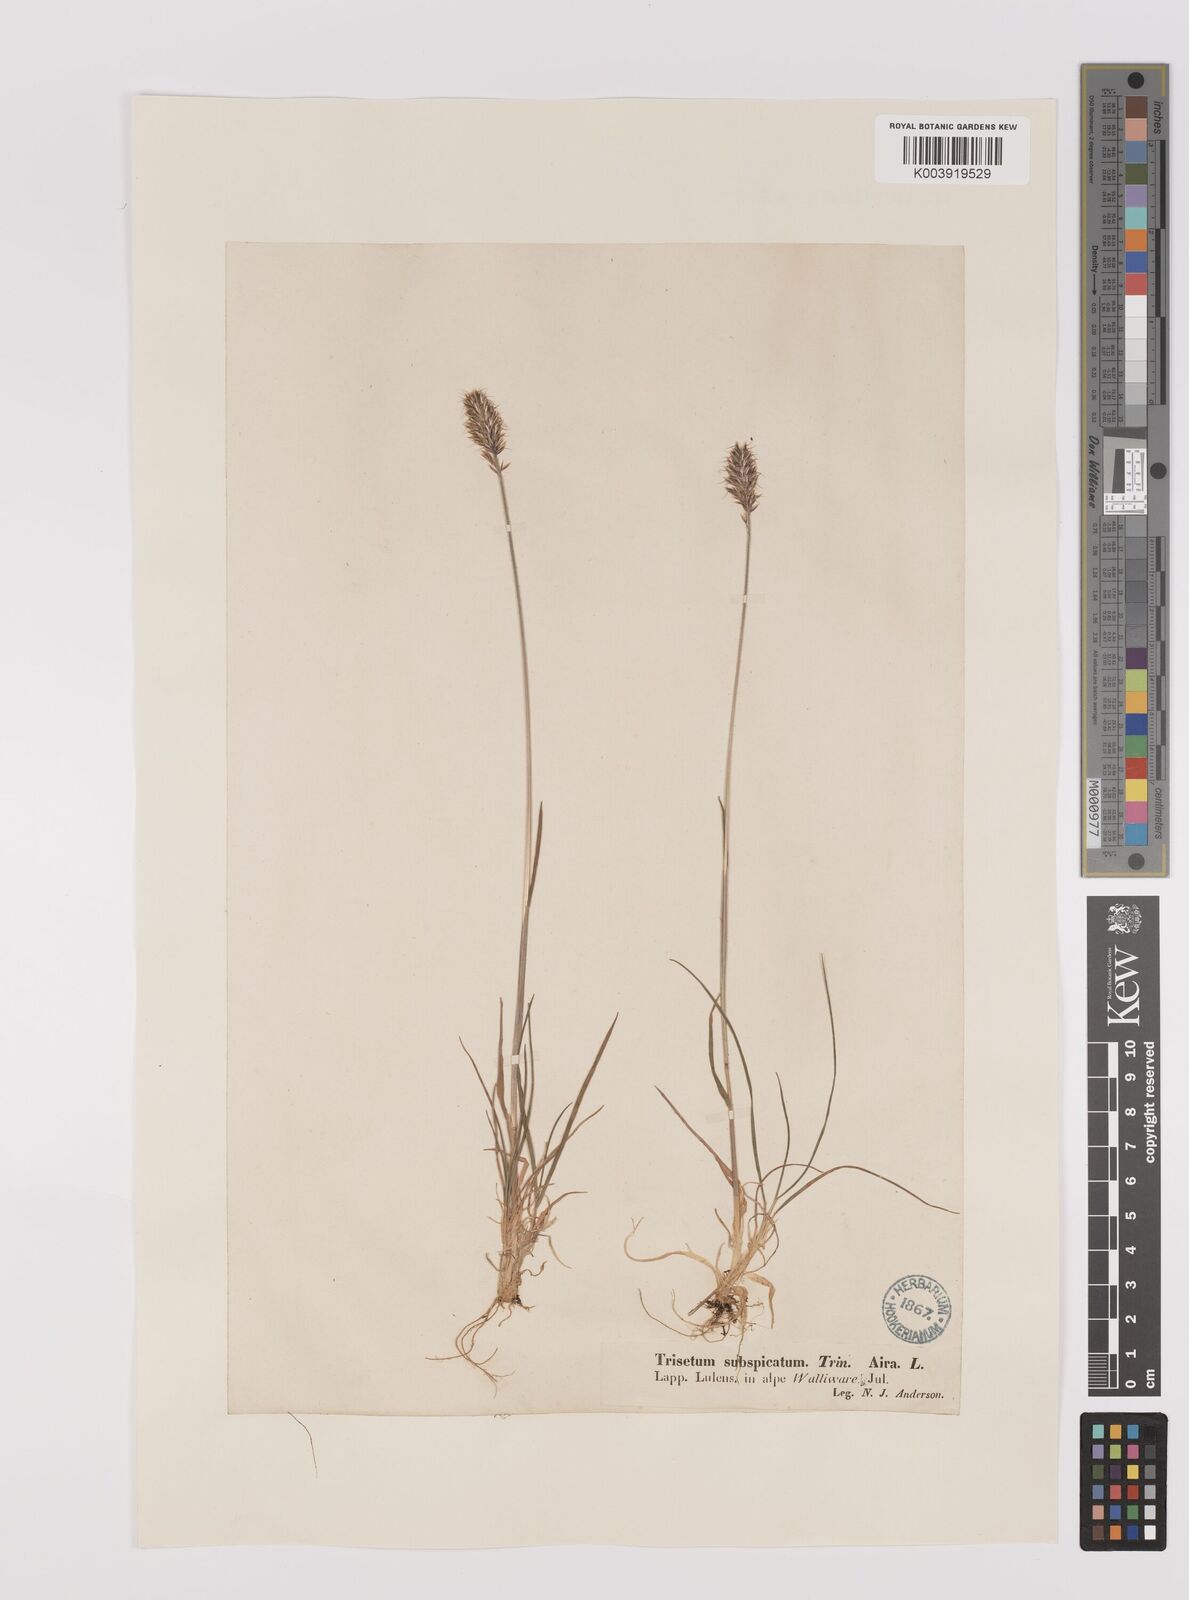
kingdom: Plantae
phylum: Tracheophyta
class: Liliopsida
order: Poales
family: Poaceae
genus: Koeleria
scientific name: Koeleria spicata
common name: Mountain trisetum
